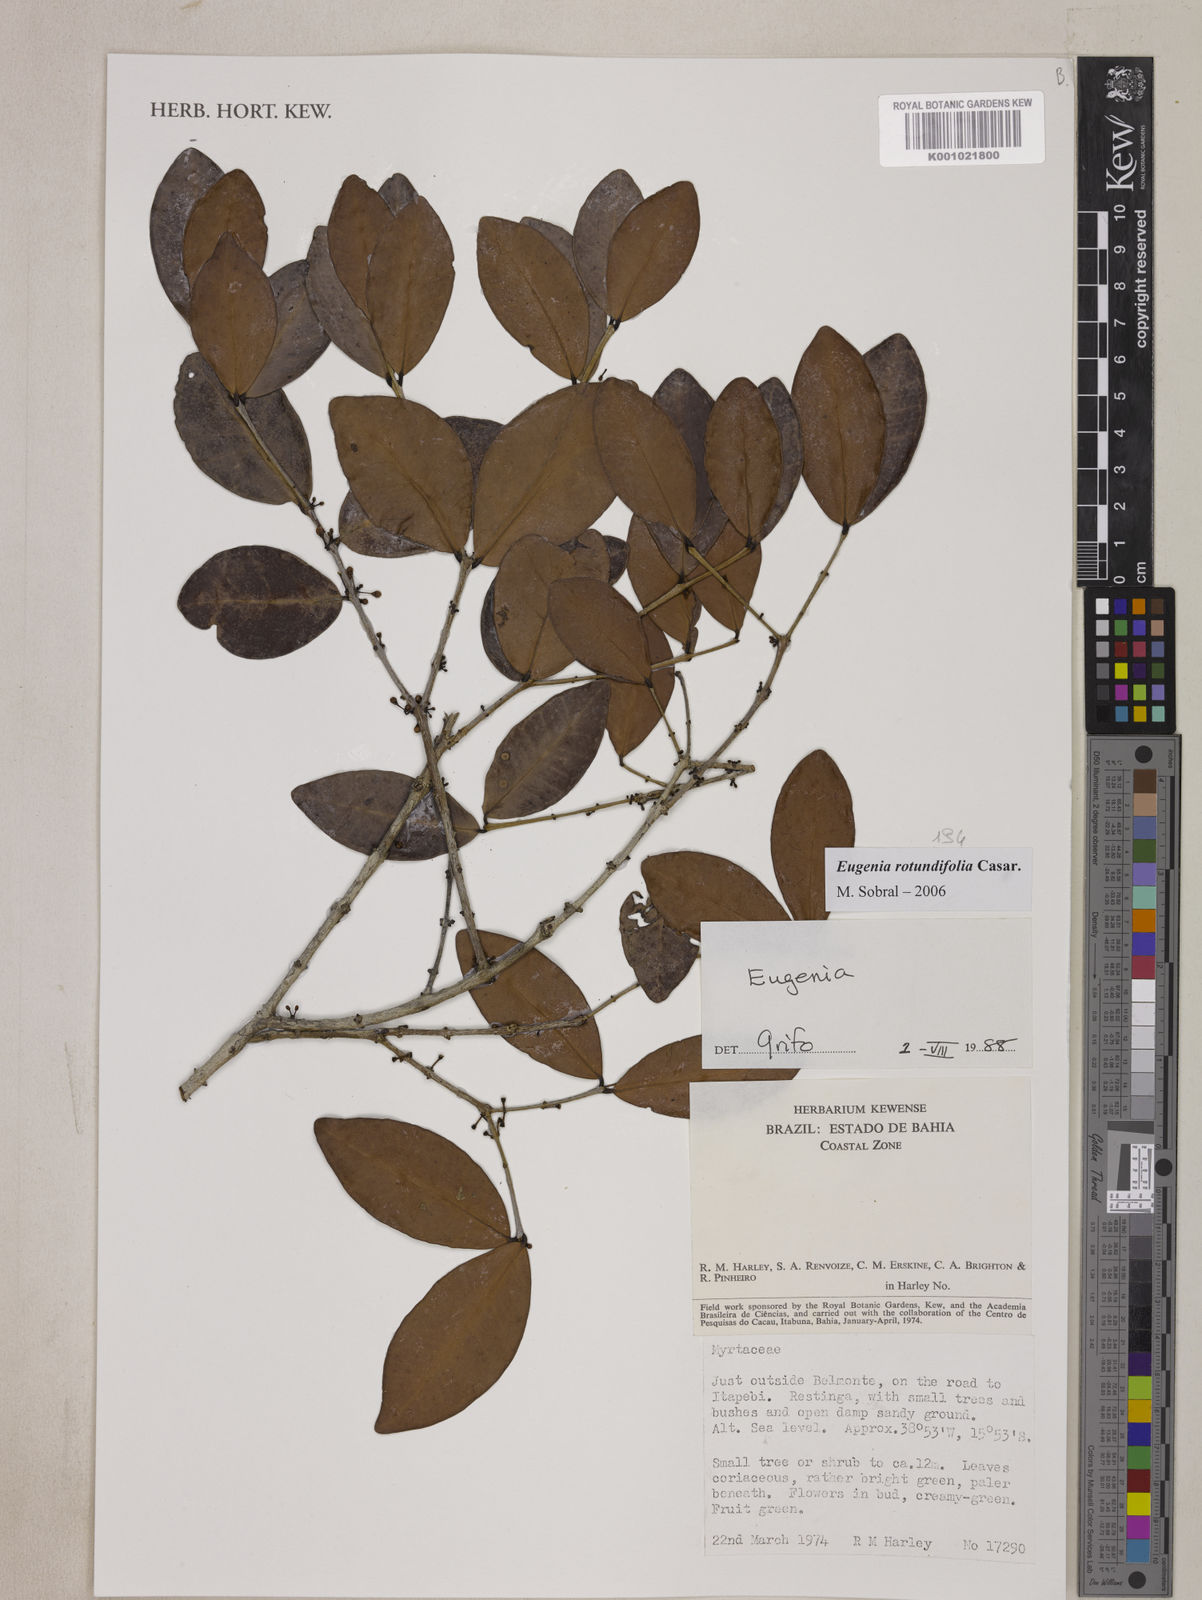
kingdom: Plantae
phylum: Tracheophyta
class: Magnoliopsida
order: Myrtales
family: Myrtaceae
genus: Eugenia
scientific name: Eugenia casarettoana
